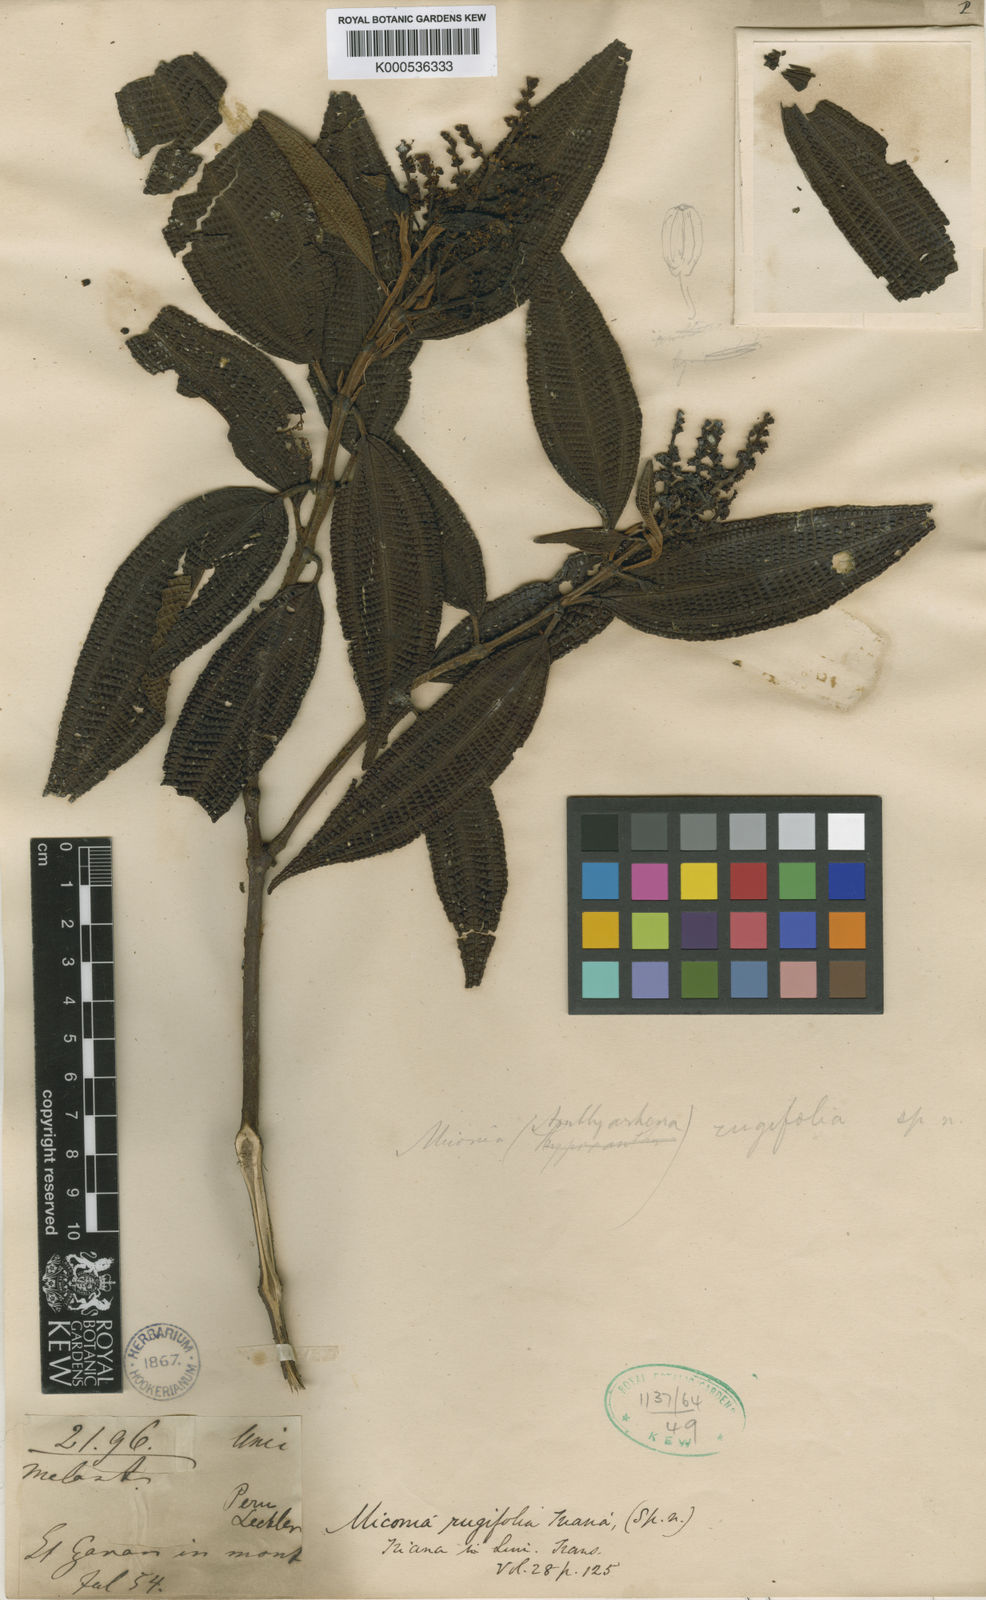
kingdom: Plantae
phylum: Tracheophyta
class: Magnoliopsida
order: Myrtales
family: Melastomataceae
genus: Miconia
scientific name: Miconia rugifolia
